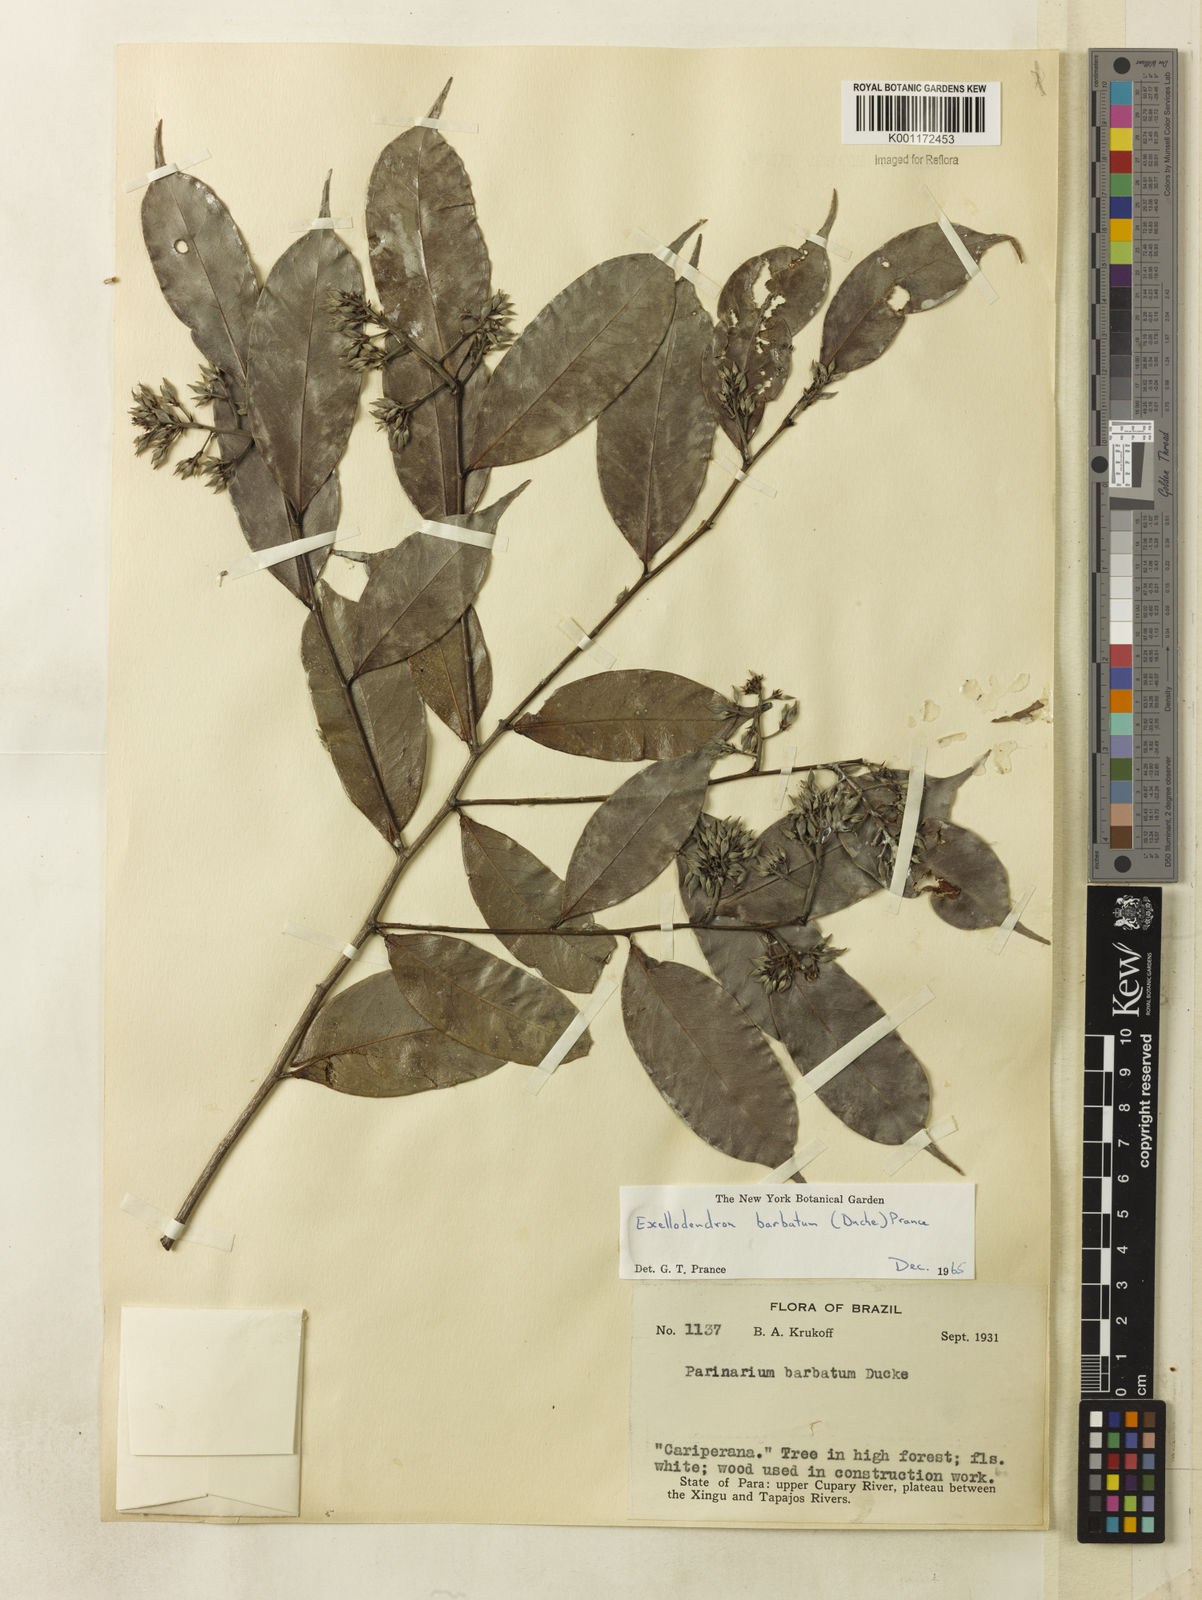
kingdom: Plantae
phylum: Tracheophyta
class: Magnoliopsida
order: Malpighiales
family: Chrysobalanaceae
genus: Atuna
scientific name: Atuna
